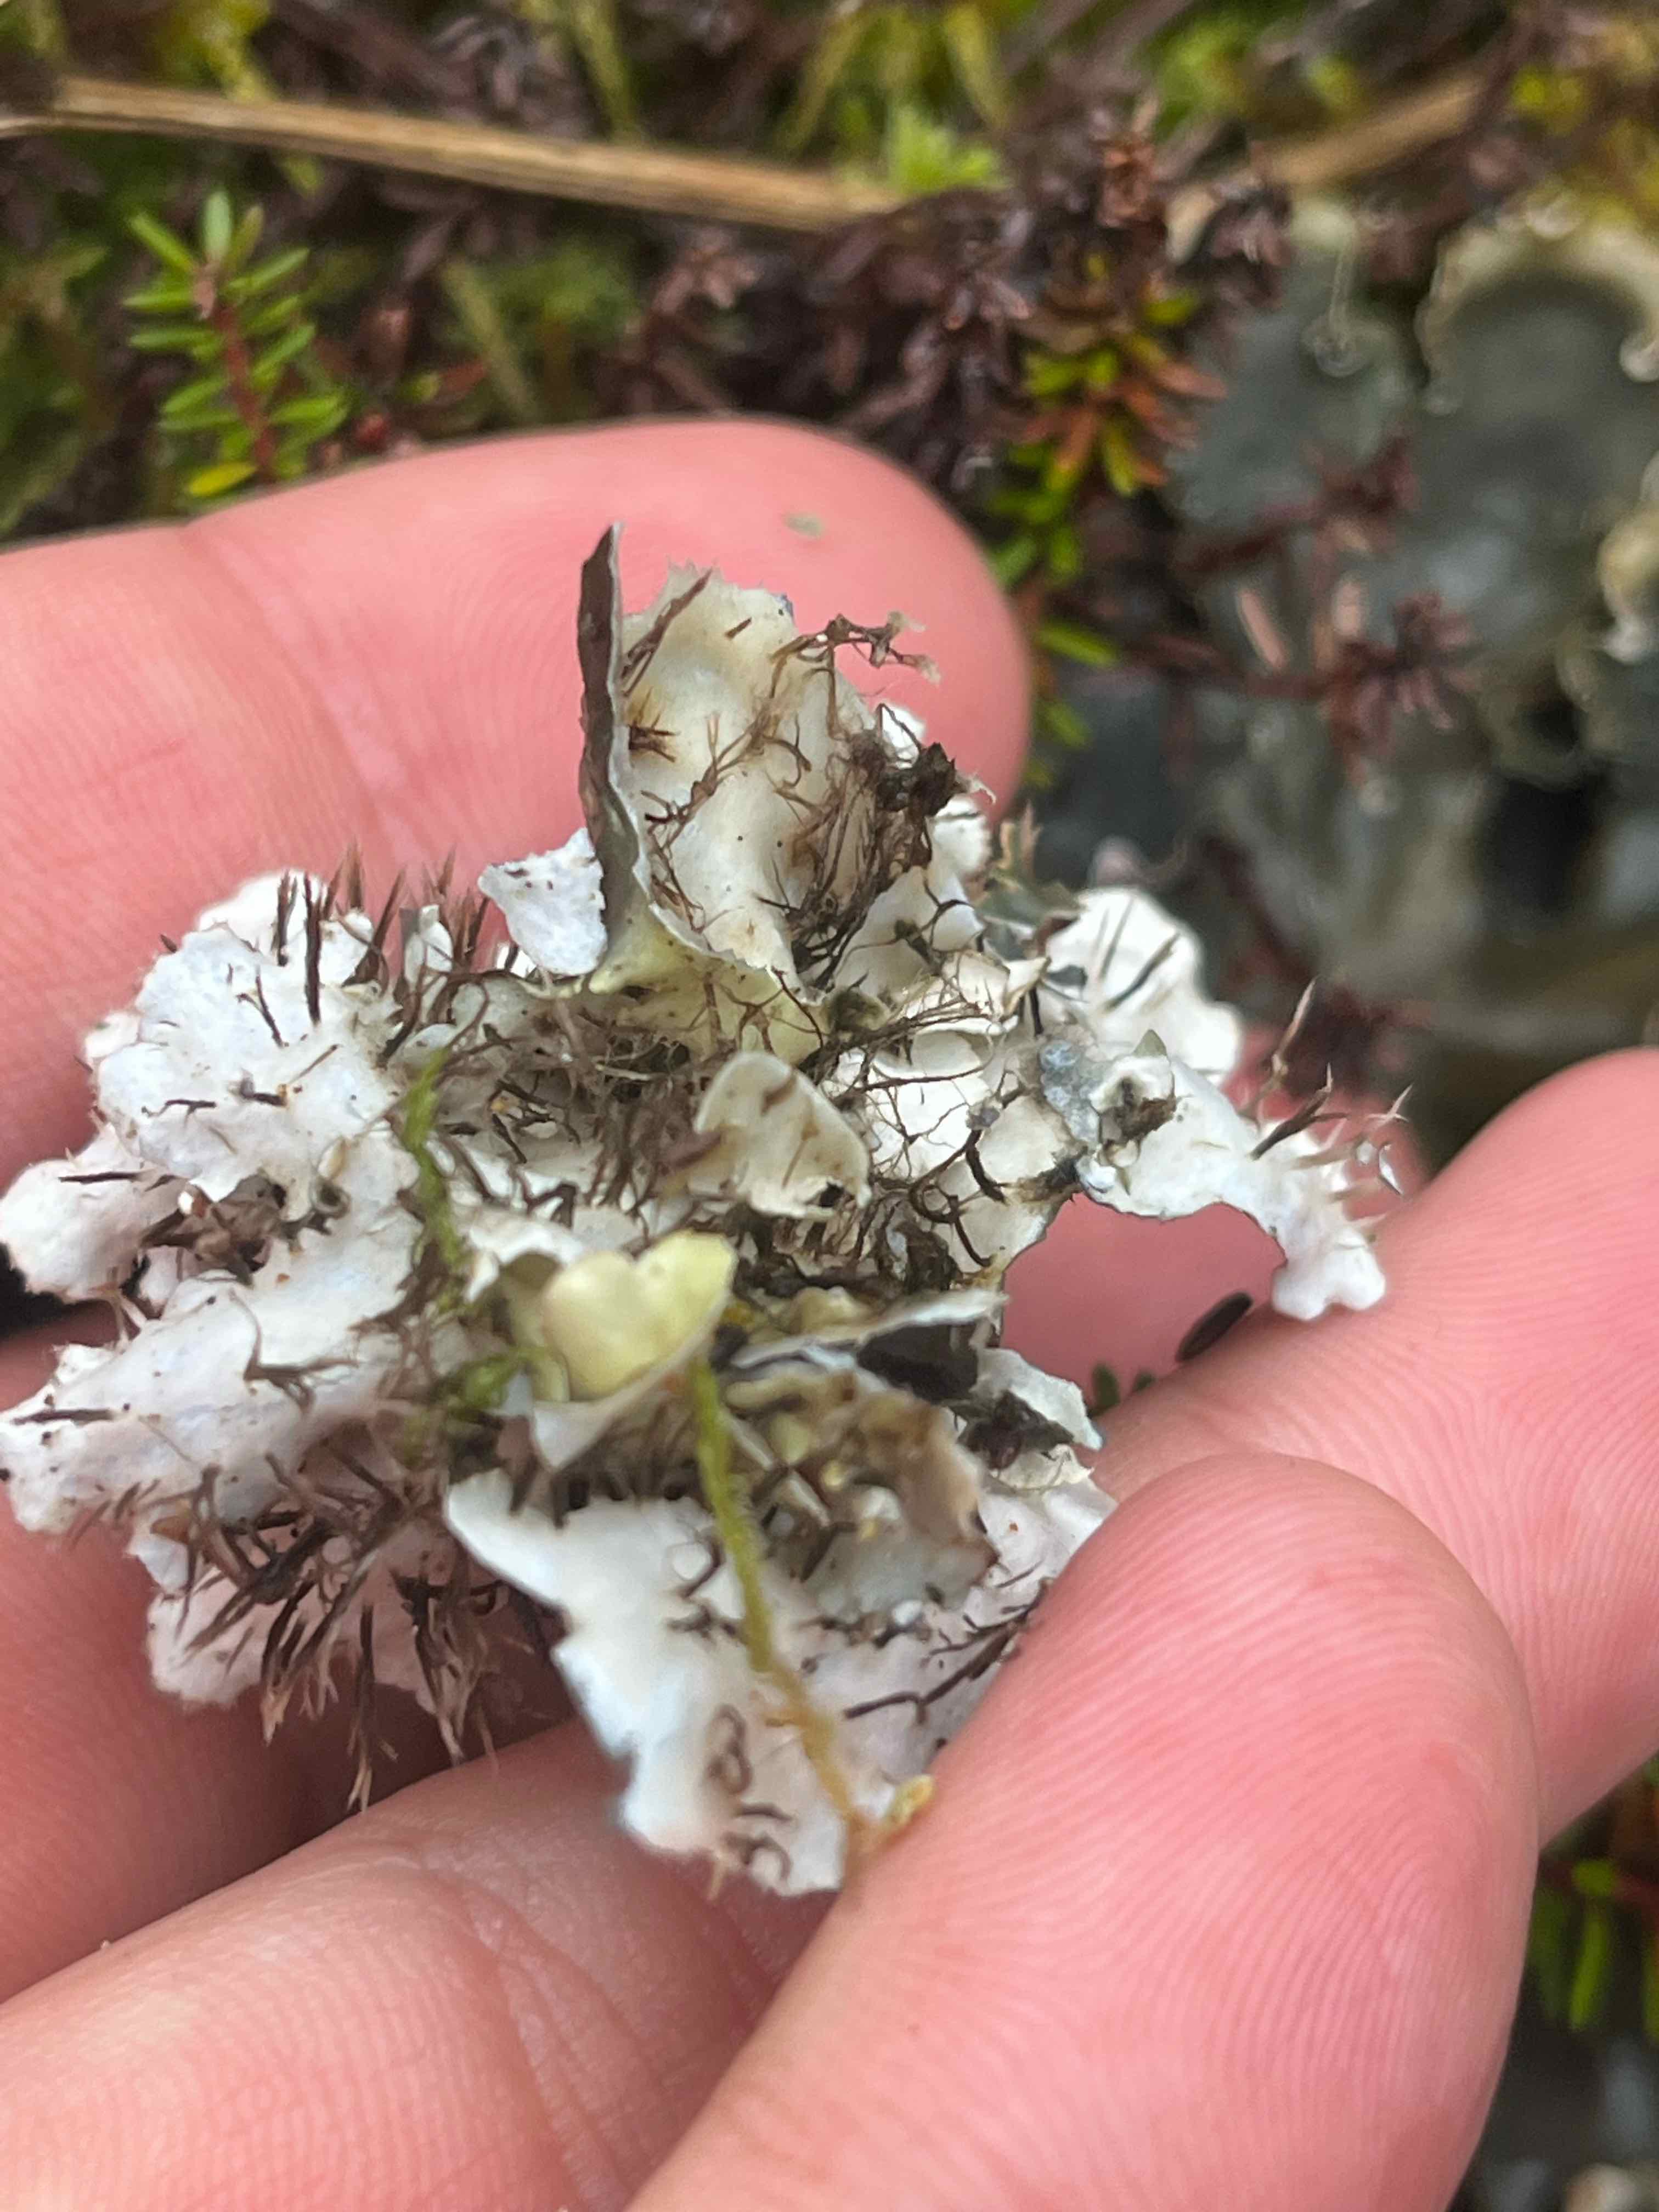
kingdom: Fungi
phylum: Ascomycota
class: Lecanoromycetes
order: Peltigerales
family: Peltigeraceae
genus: Peltigera
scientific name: Peltigera hymenina
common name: hinde-skjoldlav
